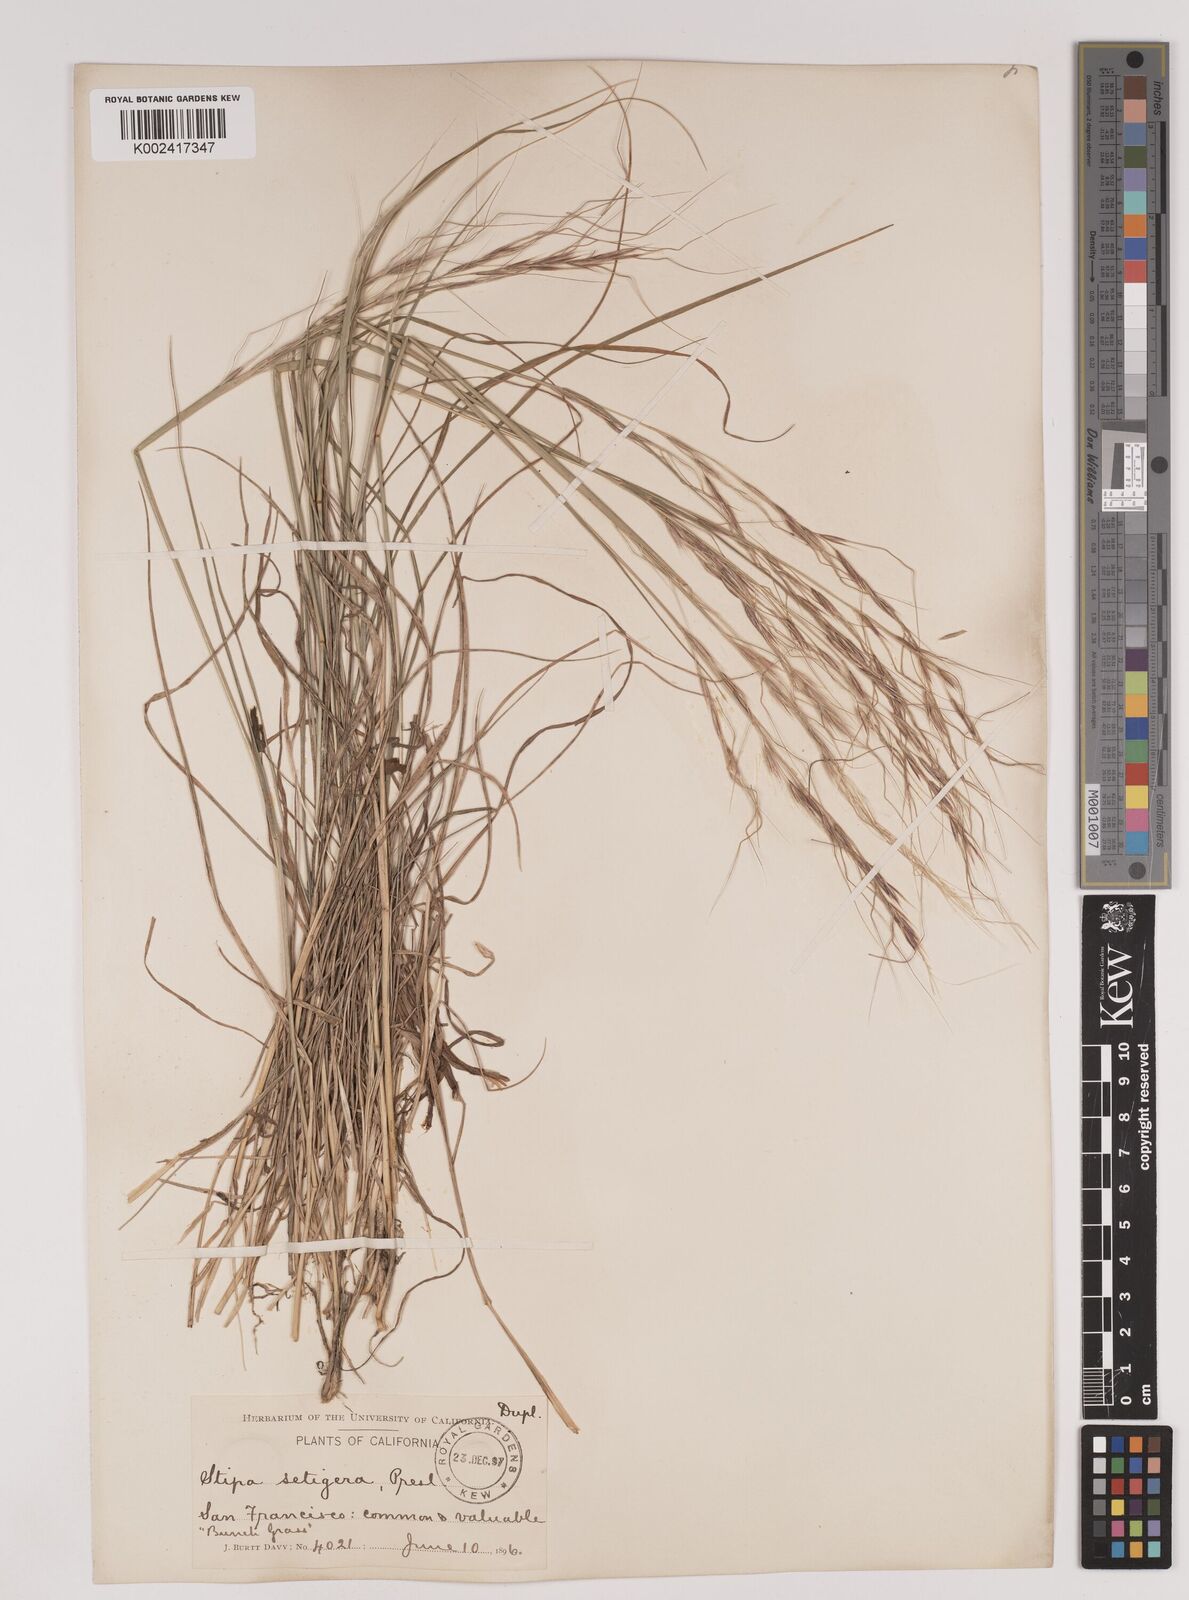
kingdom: Plantae
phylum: Tracheophyta
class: Liliopsida
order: Poales
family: Poaceae
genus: Nassella
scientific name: Nassella pulchra
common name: Purple needlegrass
